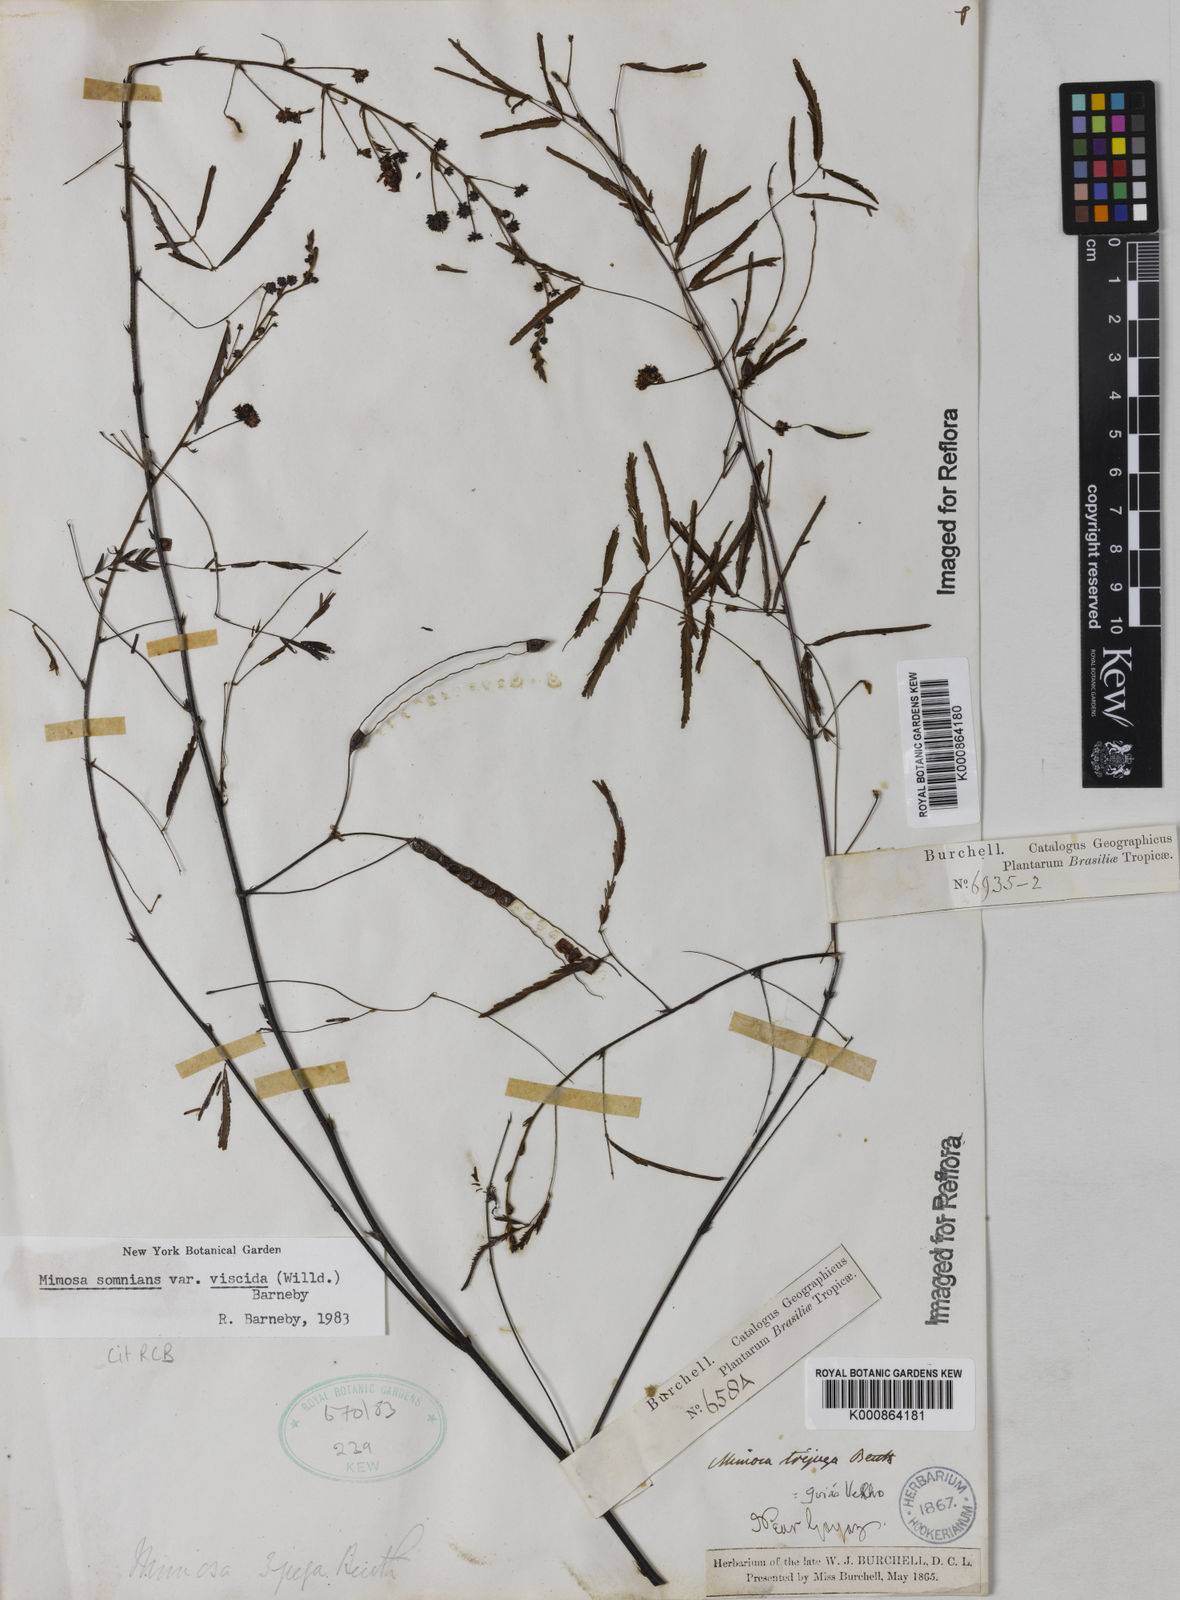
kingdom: Plantae
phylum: Tracheophyta
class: Magnoliopsida
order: Fabales
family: Fabaceae
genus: Mimosa
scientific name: Mimosa somnians
